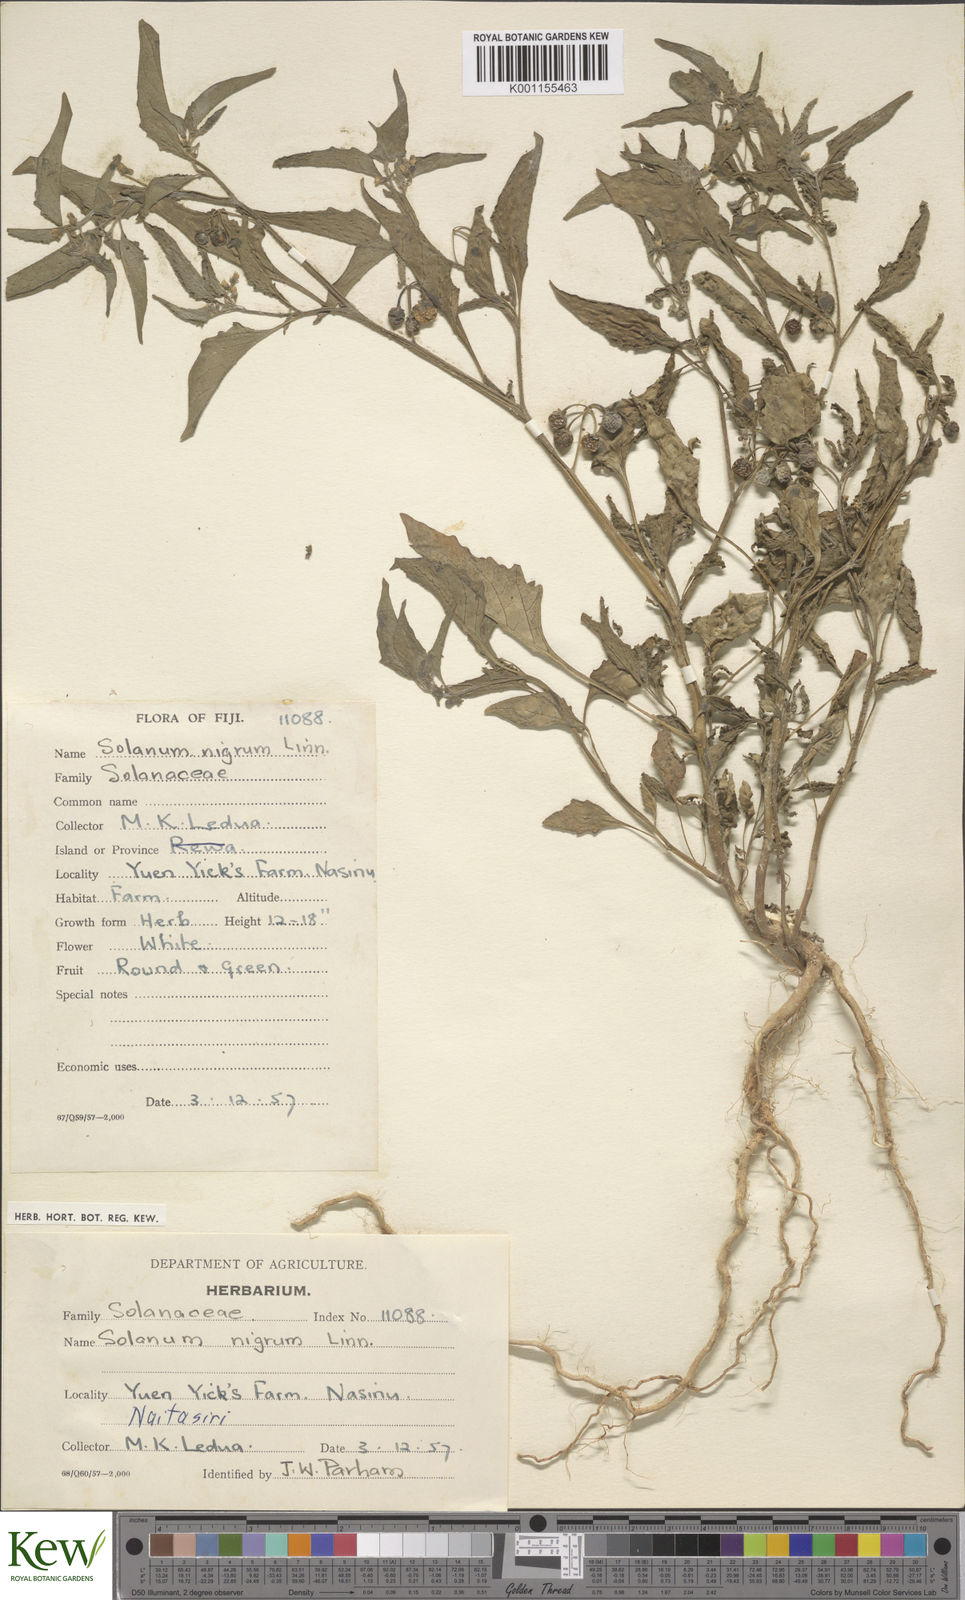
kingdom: Plantae
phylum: Tracheophyta
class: Magnoliopsida
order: Solanales
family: Solanaceae
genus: Solanum
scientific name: Solanum
